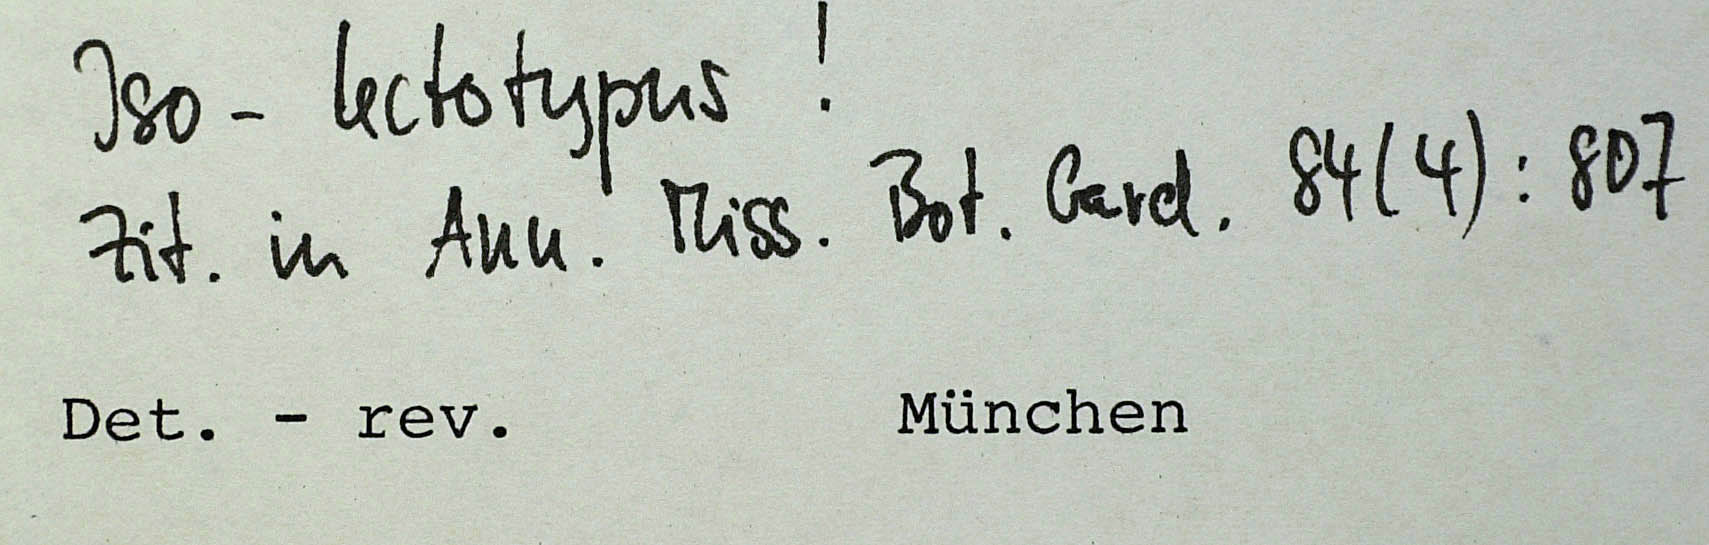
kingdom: Plantae
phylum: Tracheophyta
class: Magnoliopsida
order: Asterales
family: Asteraceae
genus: Kalimeris
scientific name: Kalimeris integrifolia
